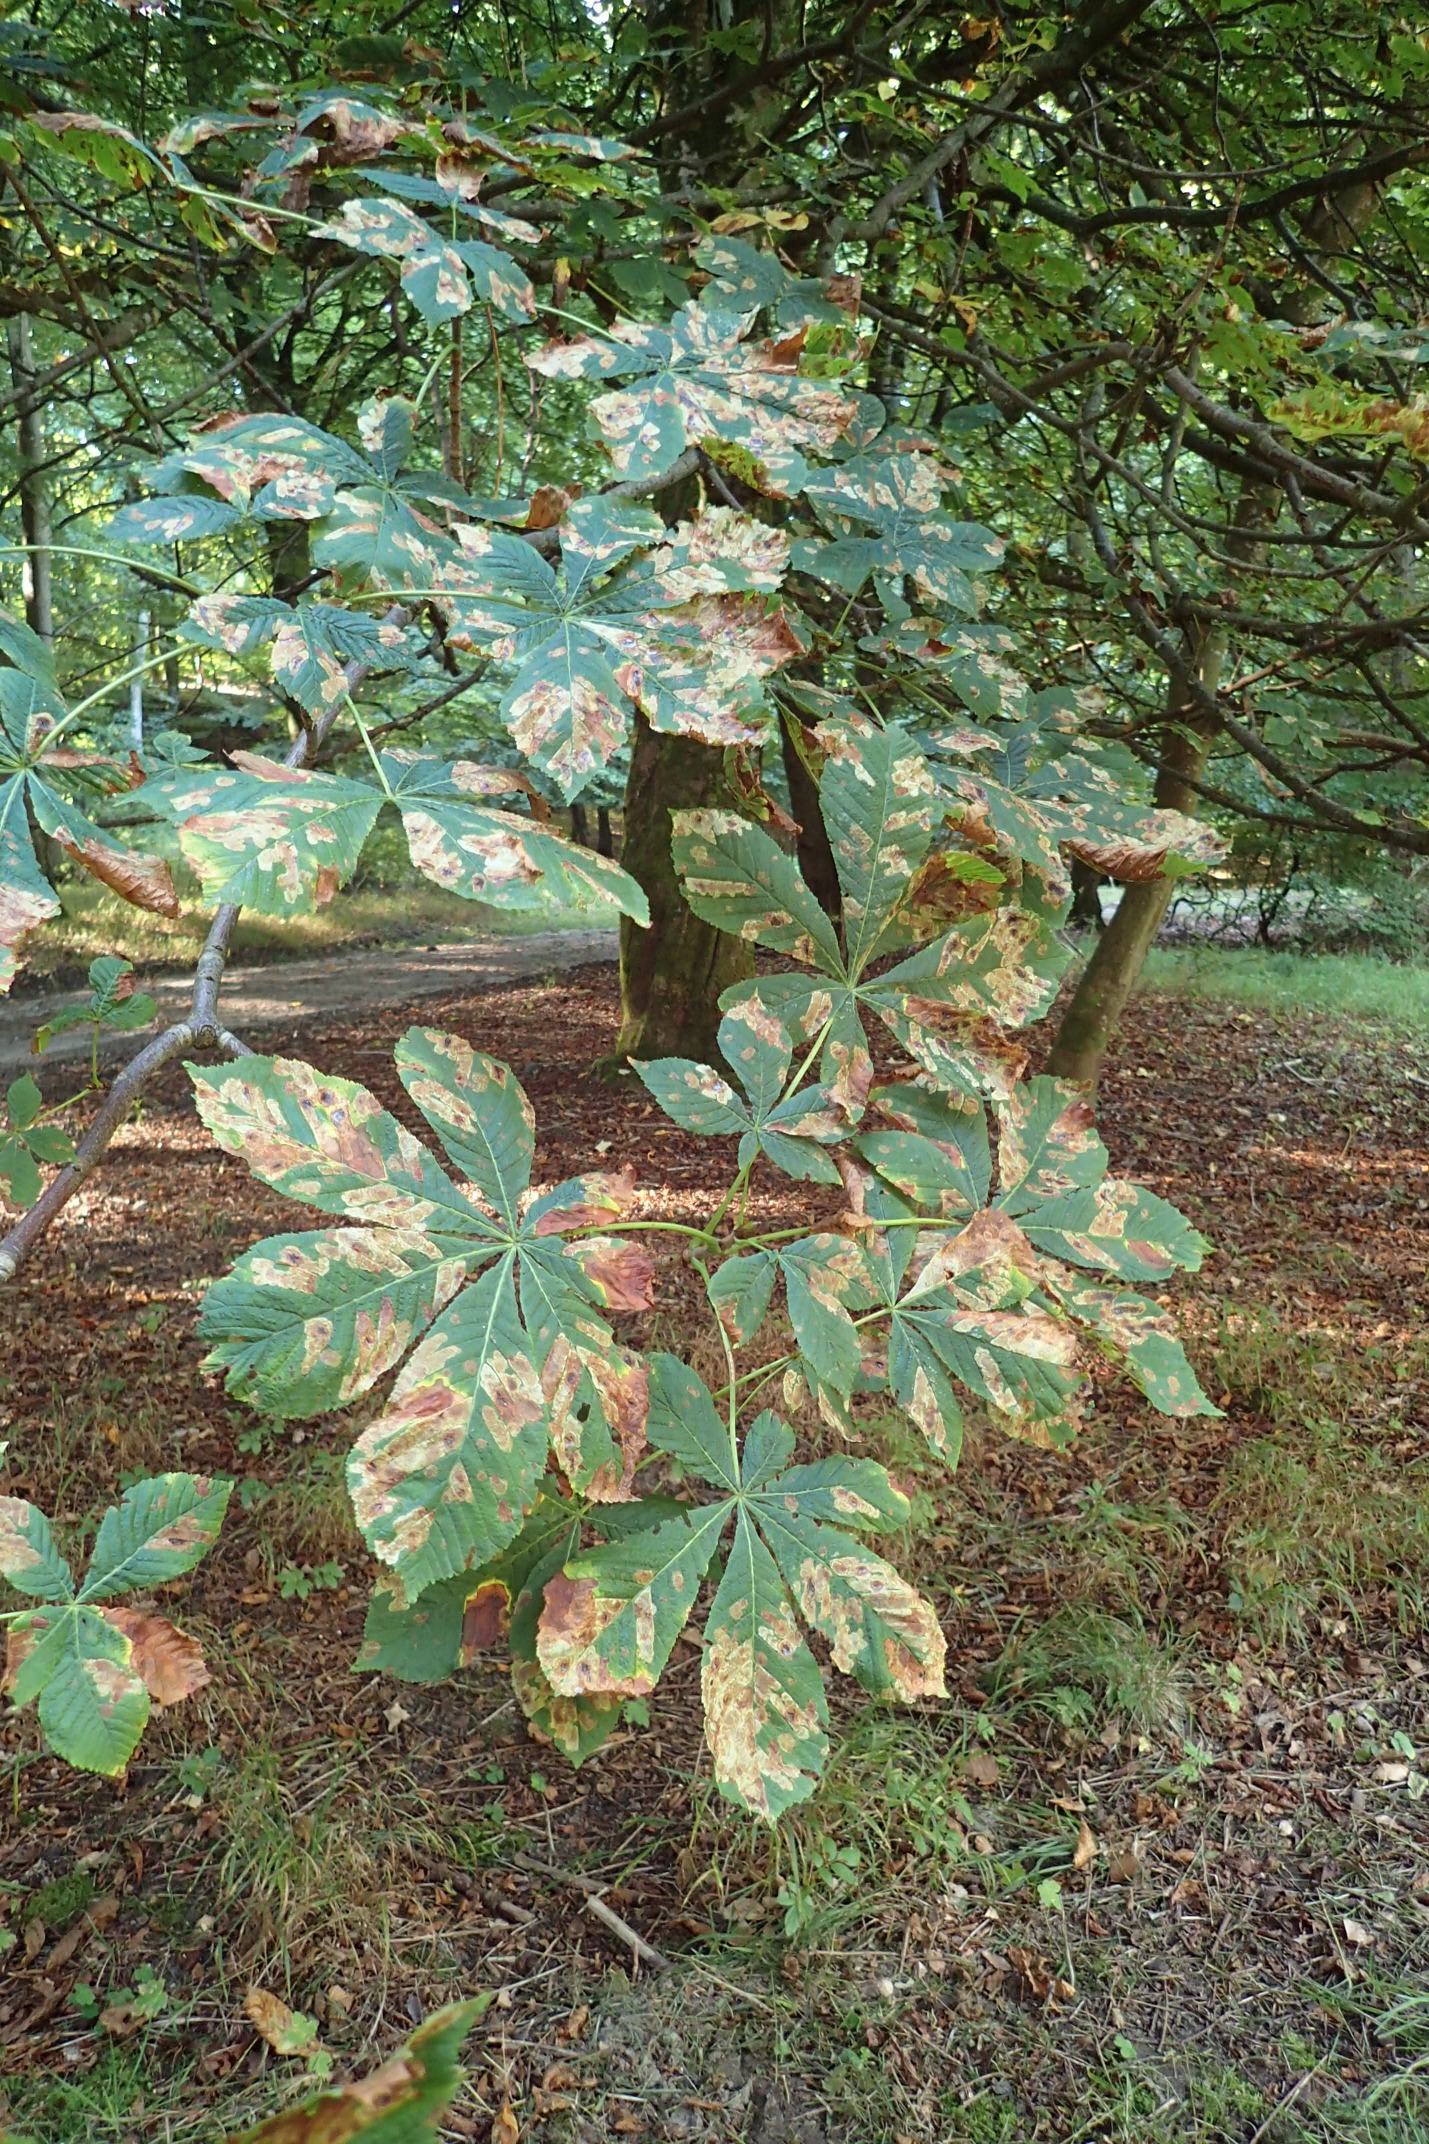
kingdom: Animalia
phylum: Arthropoda
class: Insecta
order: Lepidoptera
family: Gracillariidae
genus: Cameraria
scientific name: Cameraria ohridella
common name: Kastanieminérmøl
